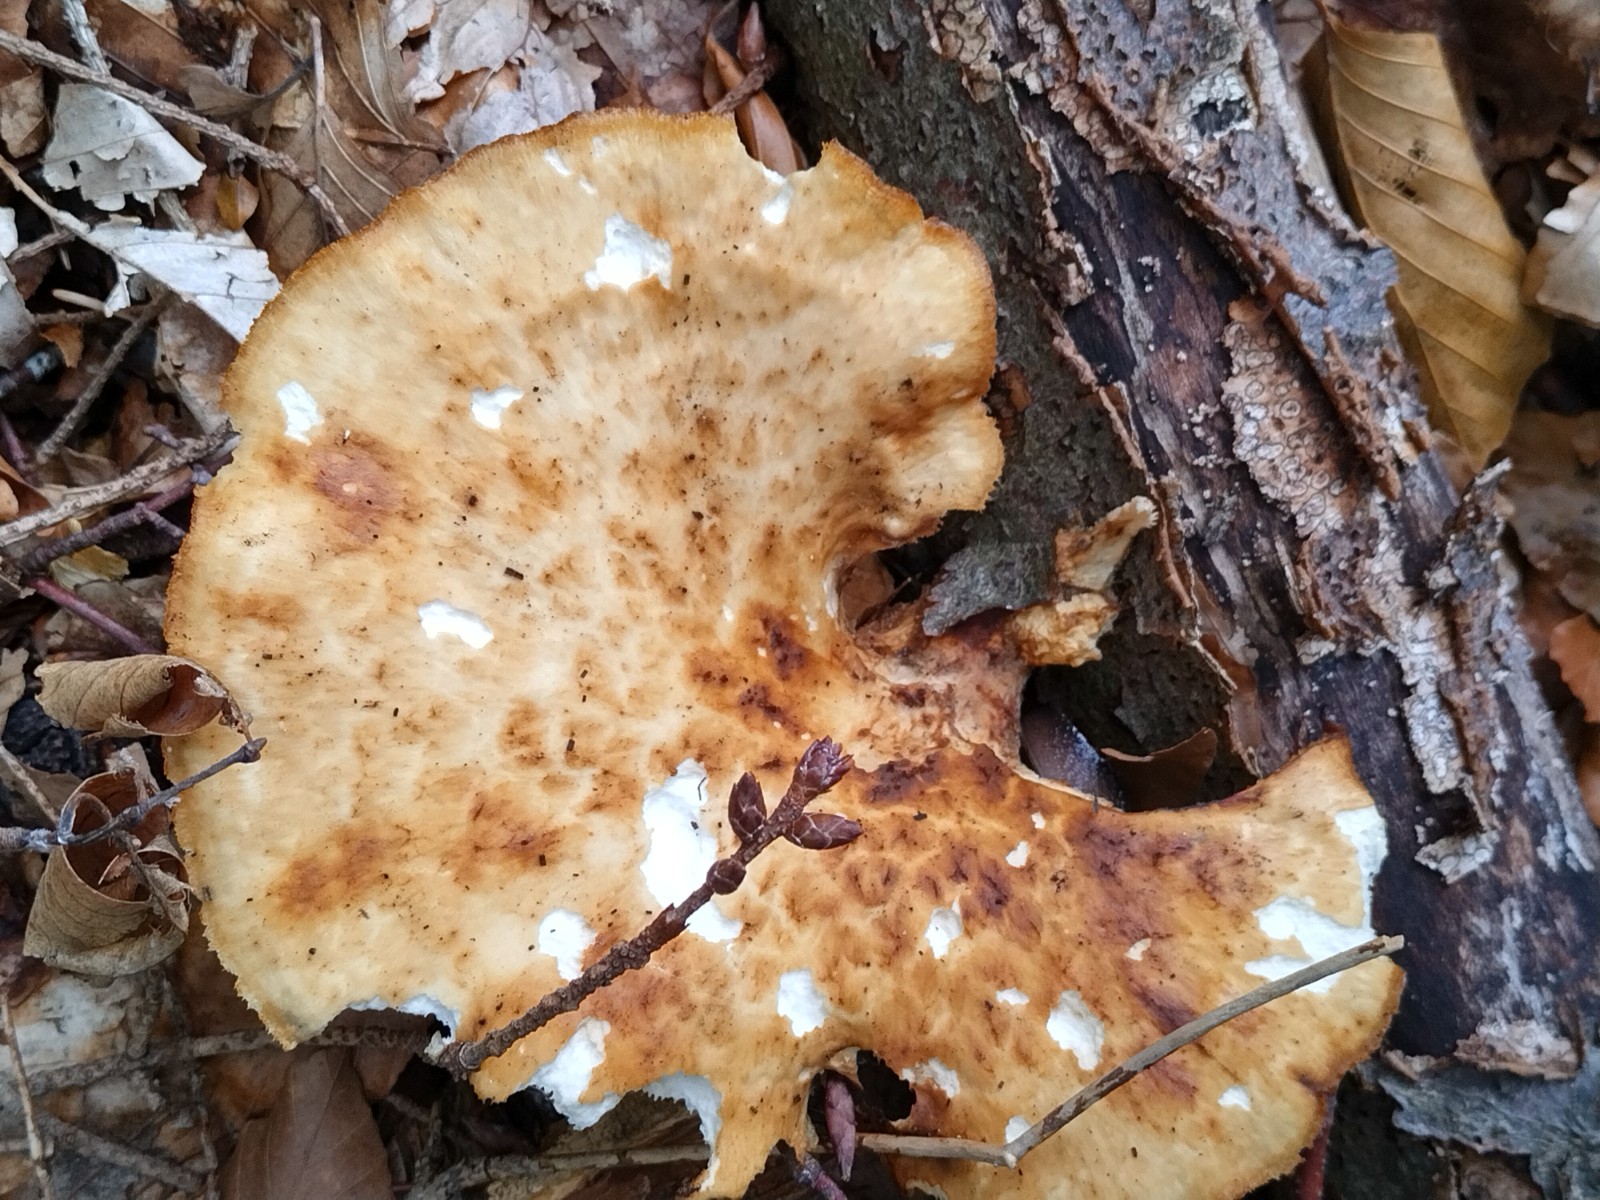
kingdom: Fungi
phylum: Basidiomycota
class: Agaricomycetes
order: Polyporales
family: Polyporaceae
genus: Polyporus
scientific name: Polyporus tuberaster
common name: knoldet stilkporesvamp
